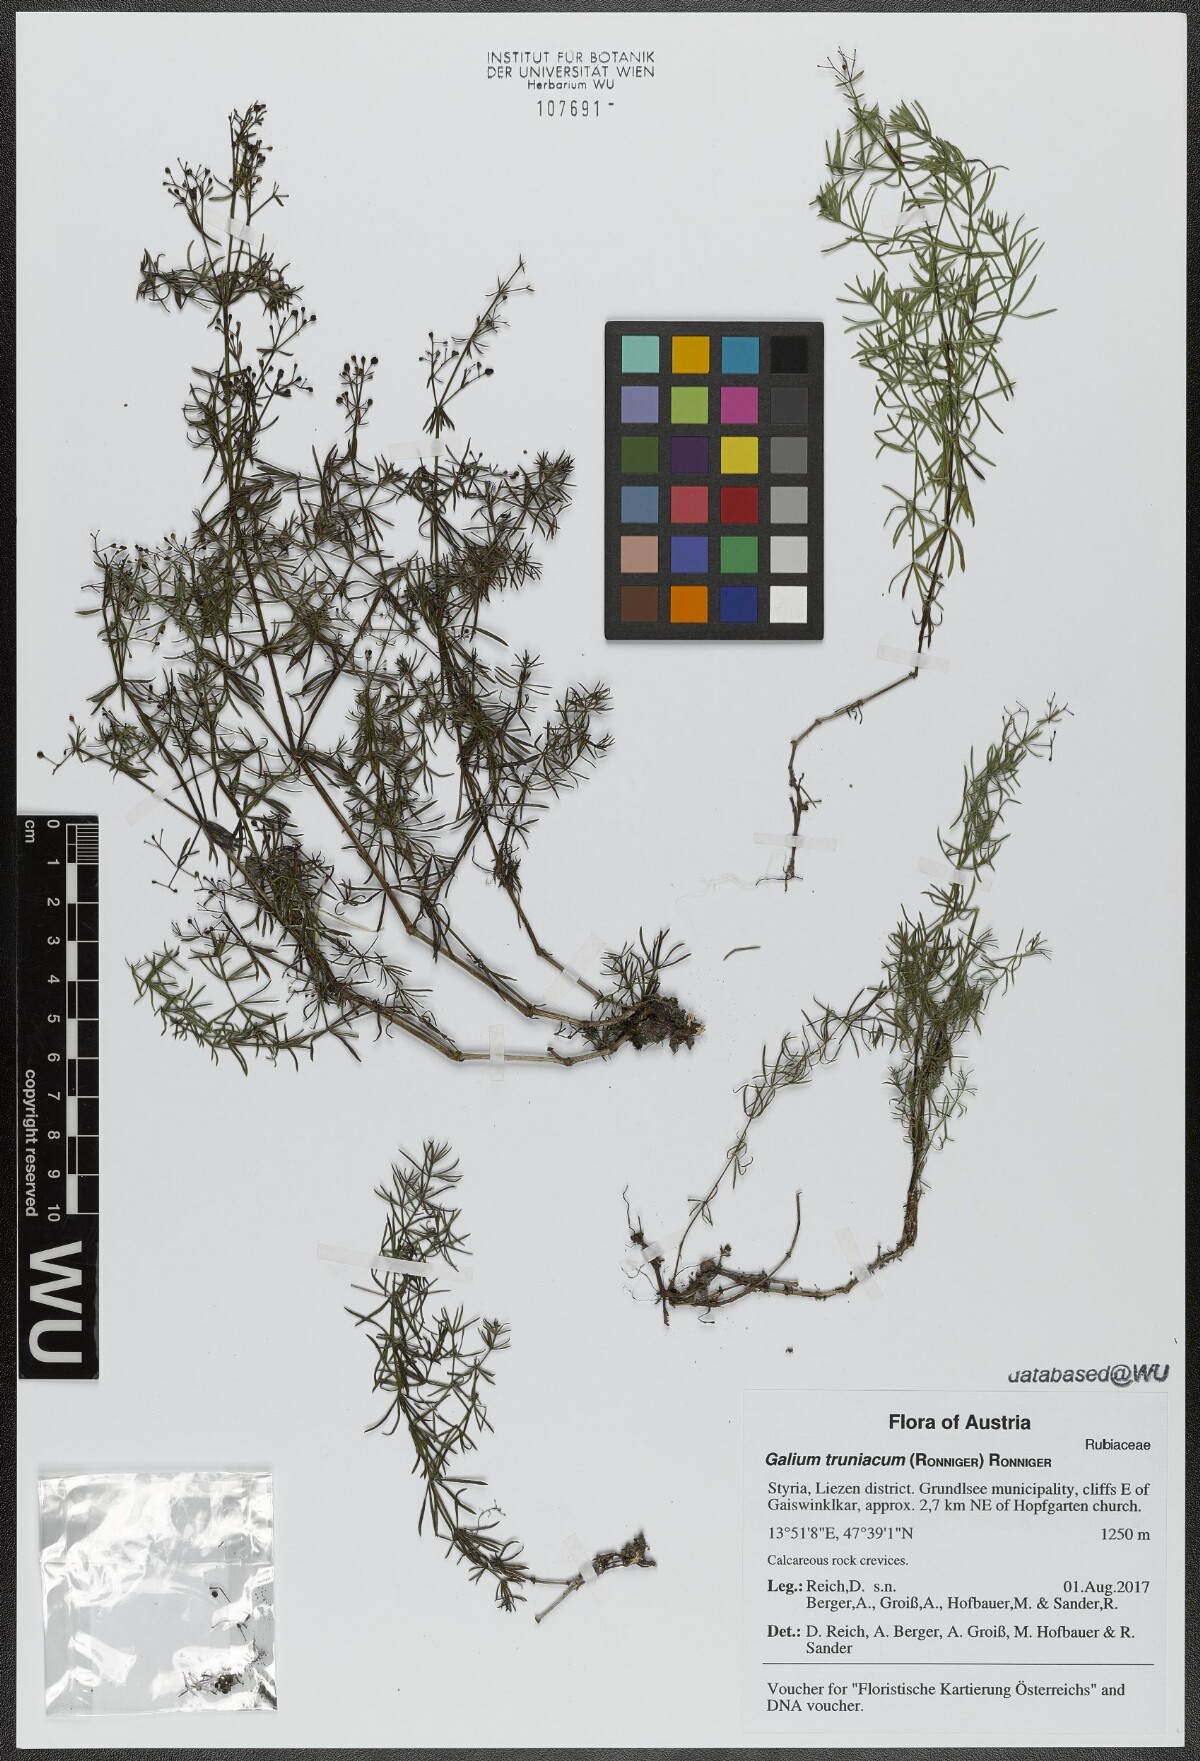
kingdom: Plantae
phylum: Tracheophyta
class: Magnoliopsida
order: Gentianales
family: Rubiaceae
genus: Galium
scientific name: Galium truniacum
